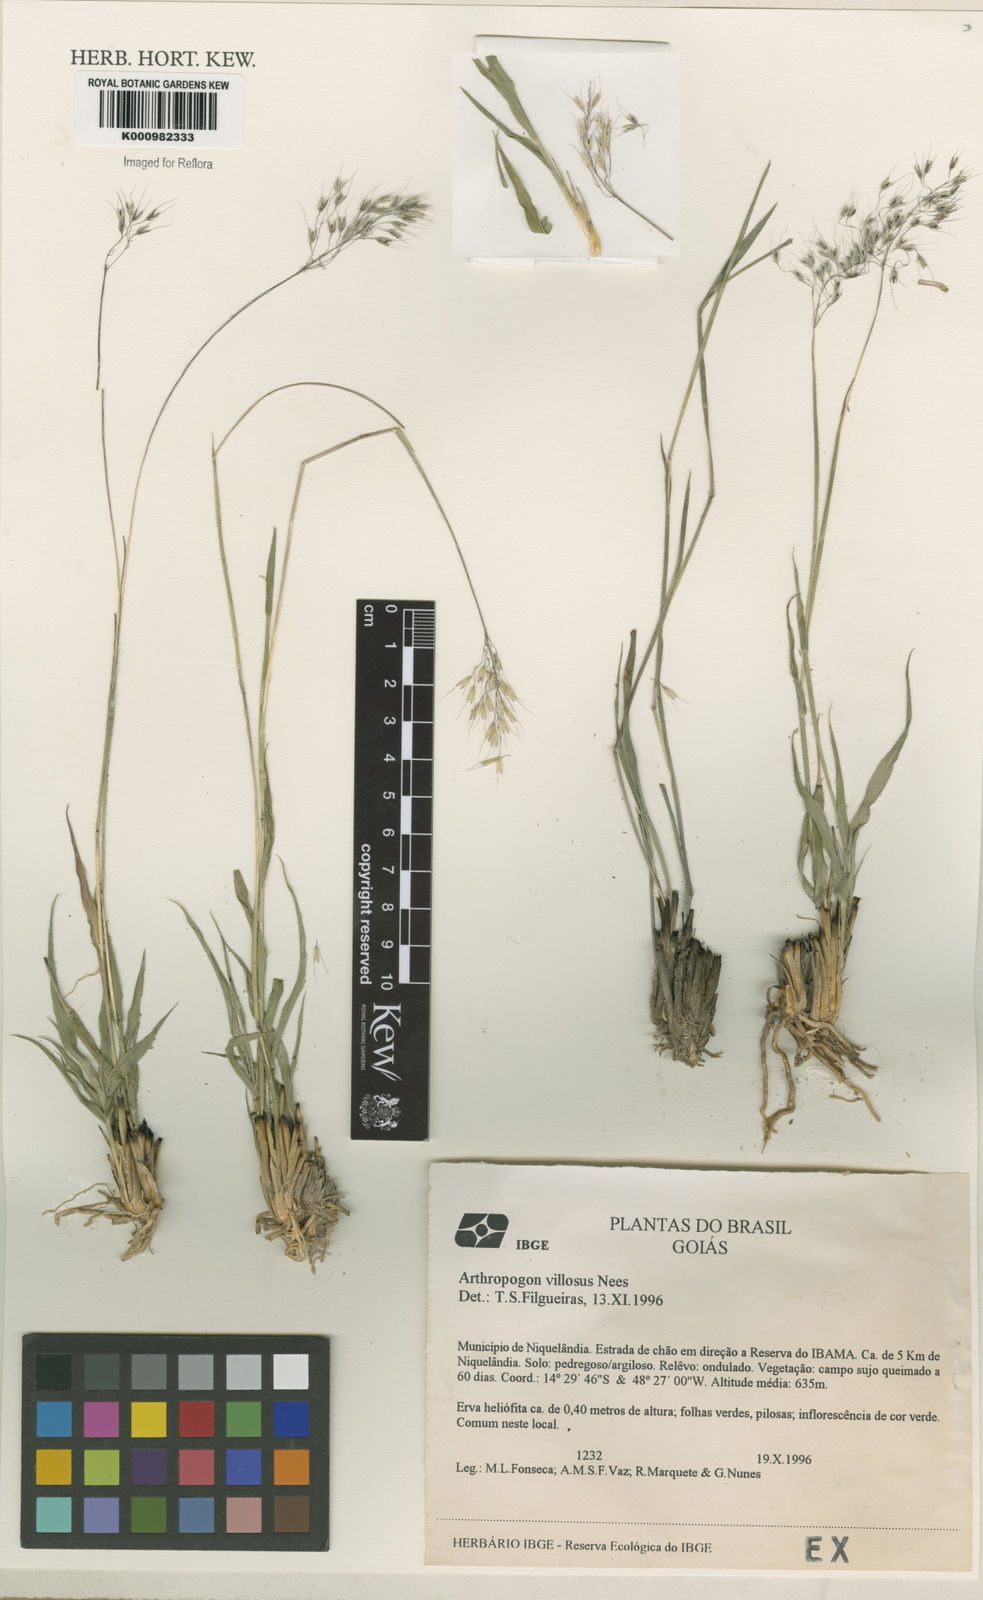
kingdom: Plantae
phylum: Tracheophyta
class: Liliopsida
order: Poales
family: Poaceae
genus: Arthropogon
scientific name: Arthropogon villosus
